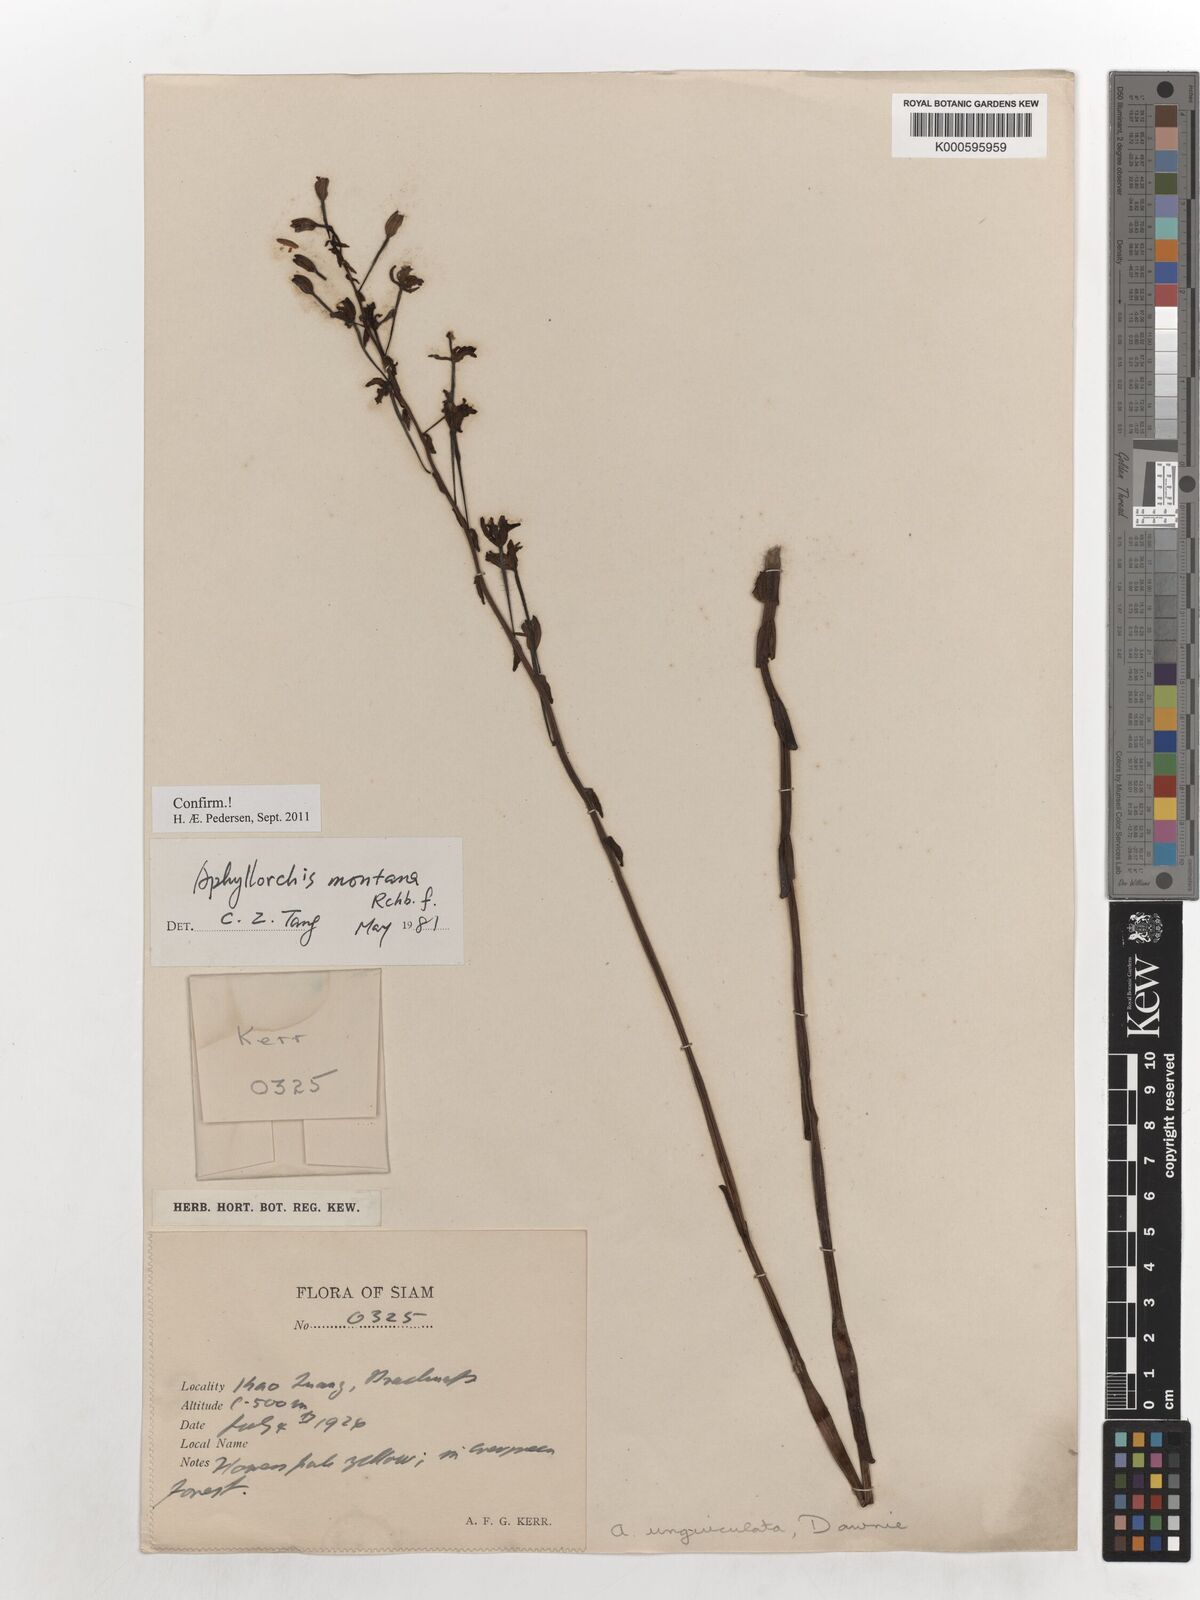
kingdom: Plantae
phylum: Tracheophyta
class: Liliopsida
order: Asparagales
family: Orchidaceae
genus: Aphyllorchis
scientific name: Aphyllorchis montana
